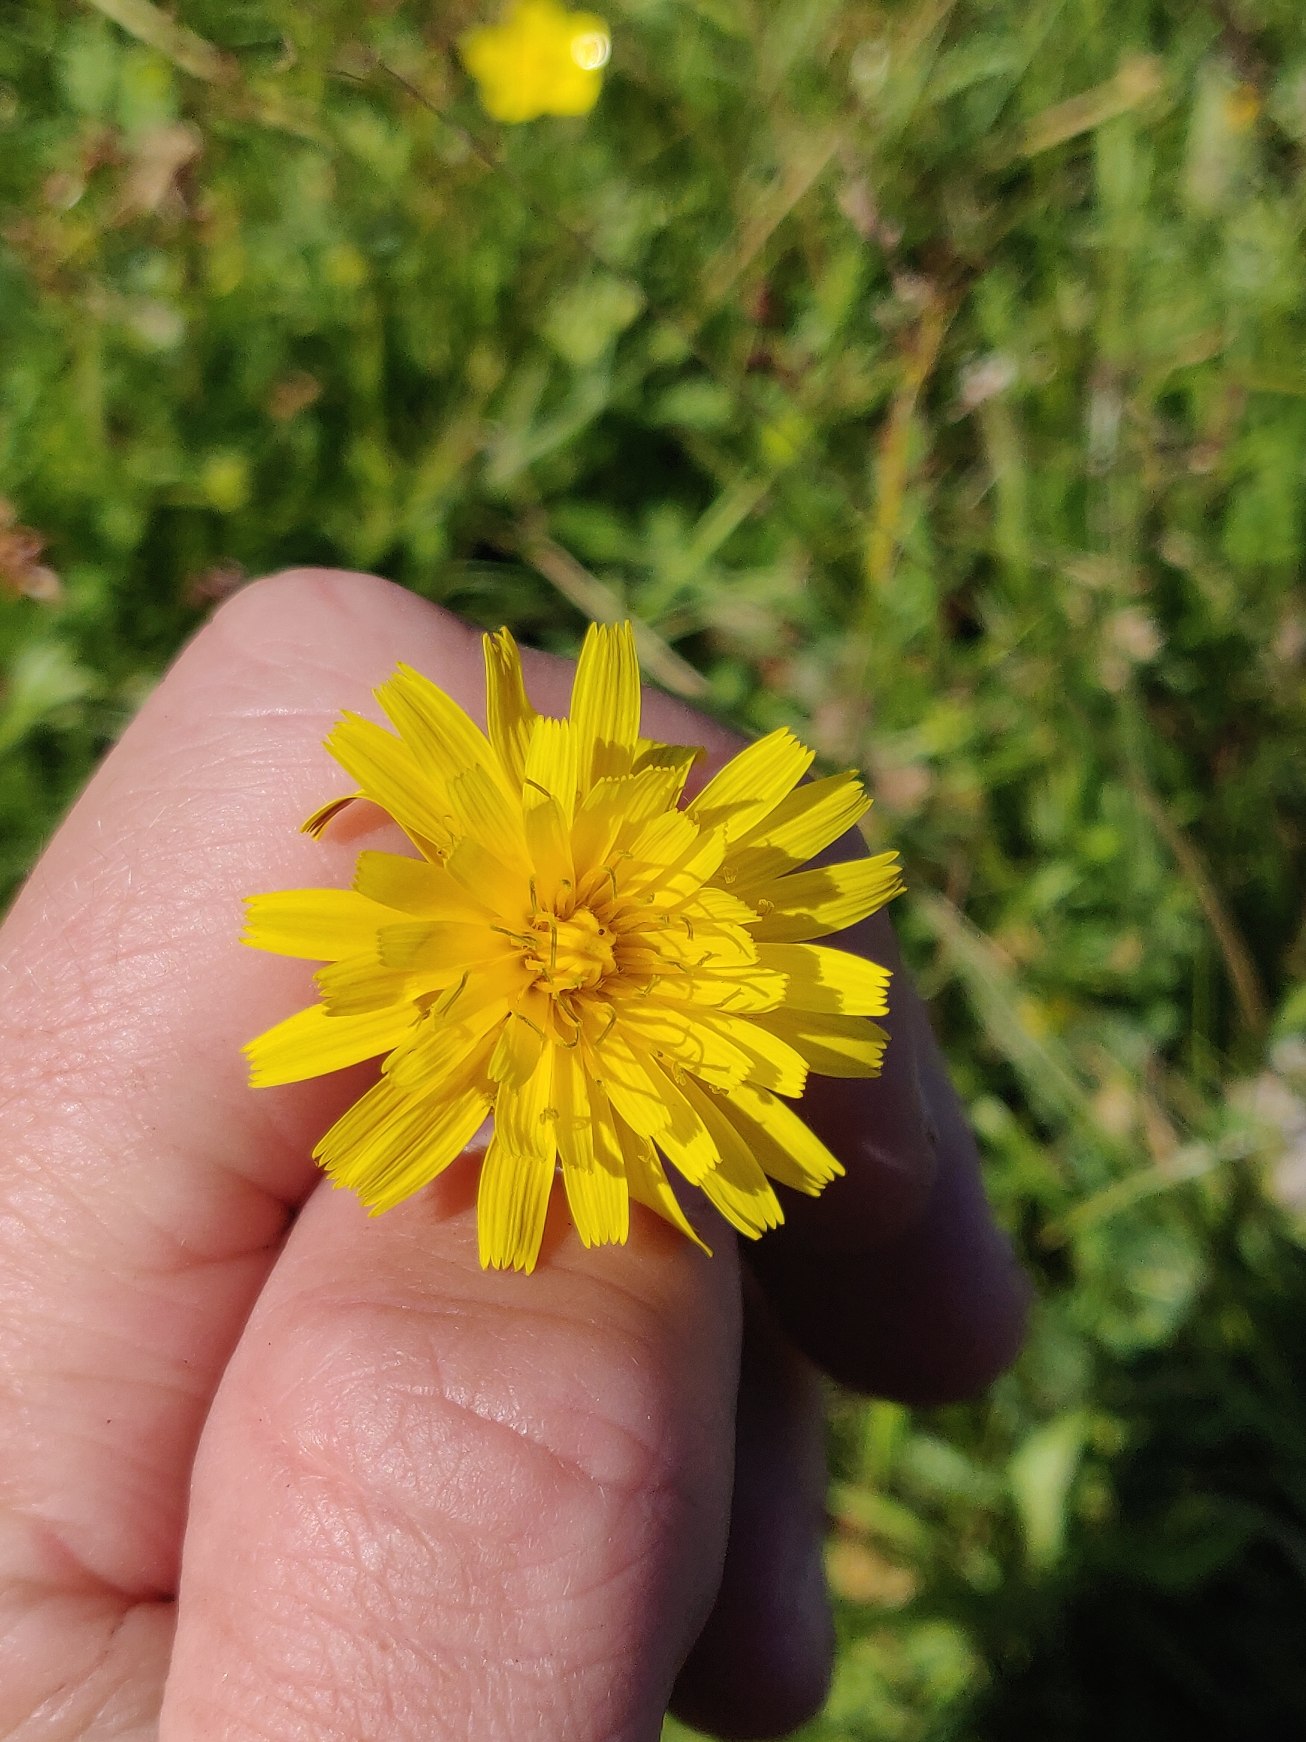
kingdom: Plantae
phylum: Tracheophyta
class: Magnoliopsida
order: Asterales
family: Asteraceae
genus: Scorzoneroides
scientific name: Scorzoneroides autumnalis
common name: Høst-borst
